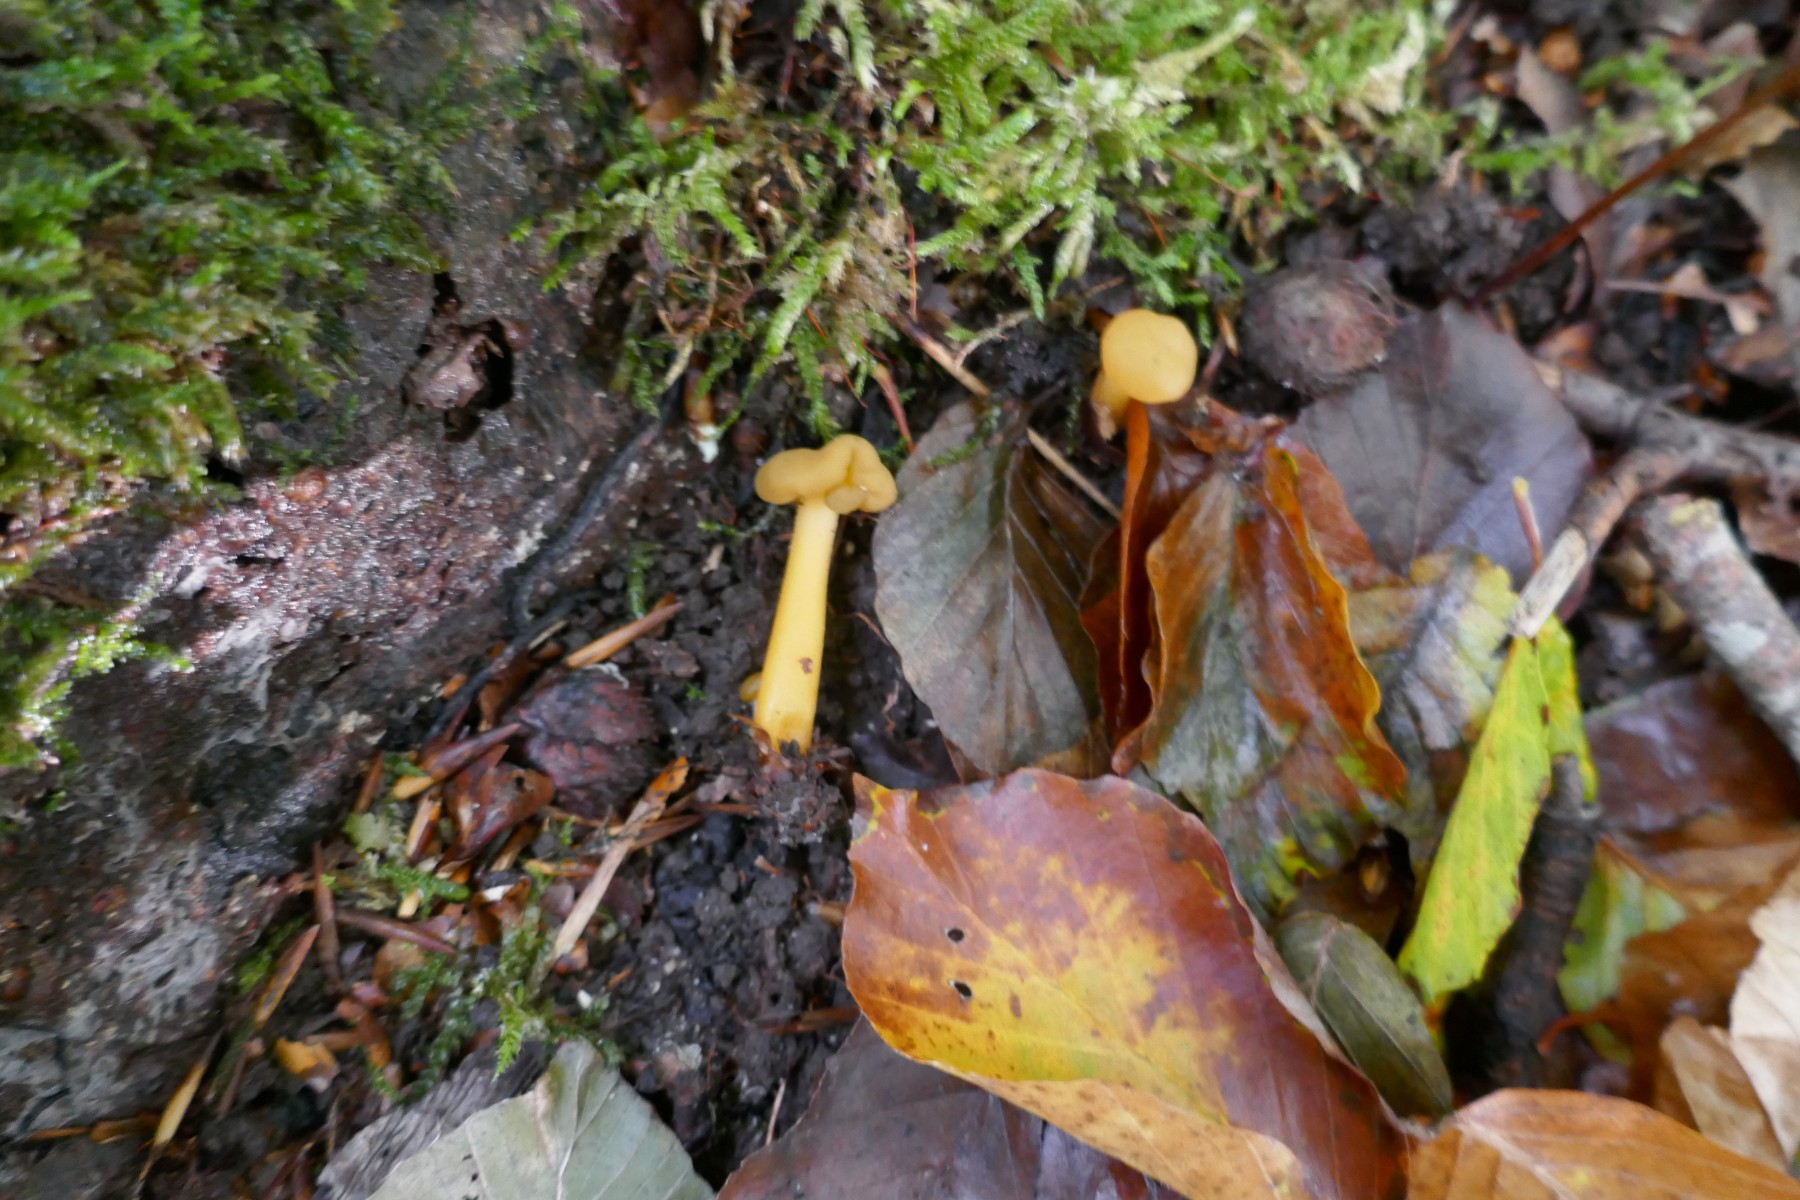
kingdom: Fungi
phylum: Ascomycota
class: Leotiomycetes
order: Leotiales
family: Leotiaceae
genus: Leotia
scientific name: Leotia lubrica
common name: ravsvamp
